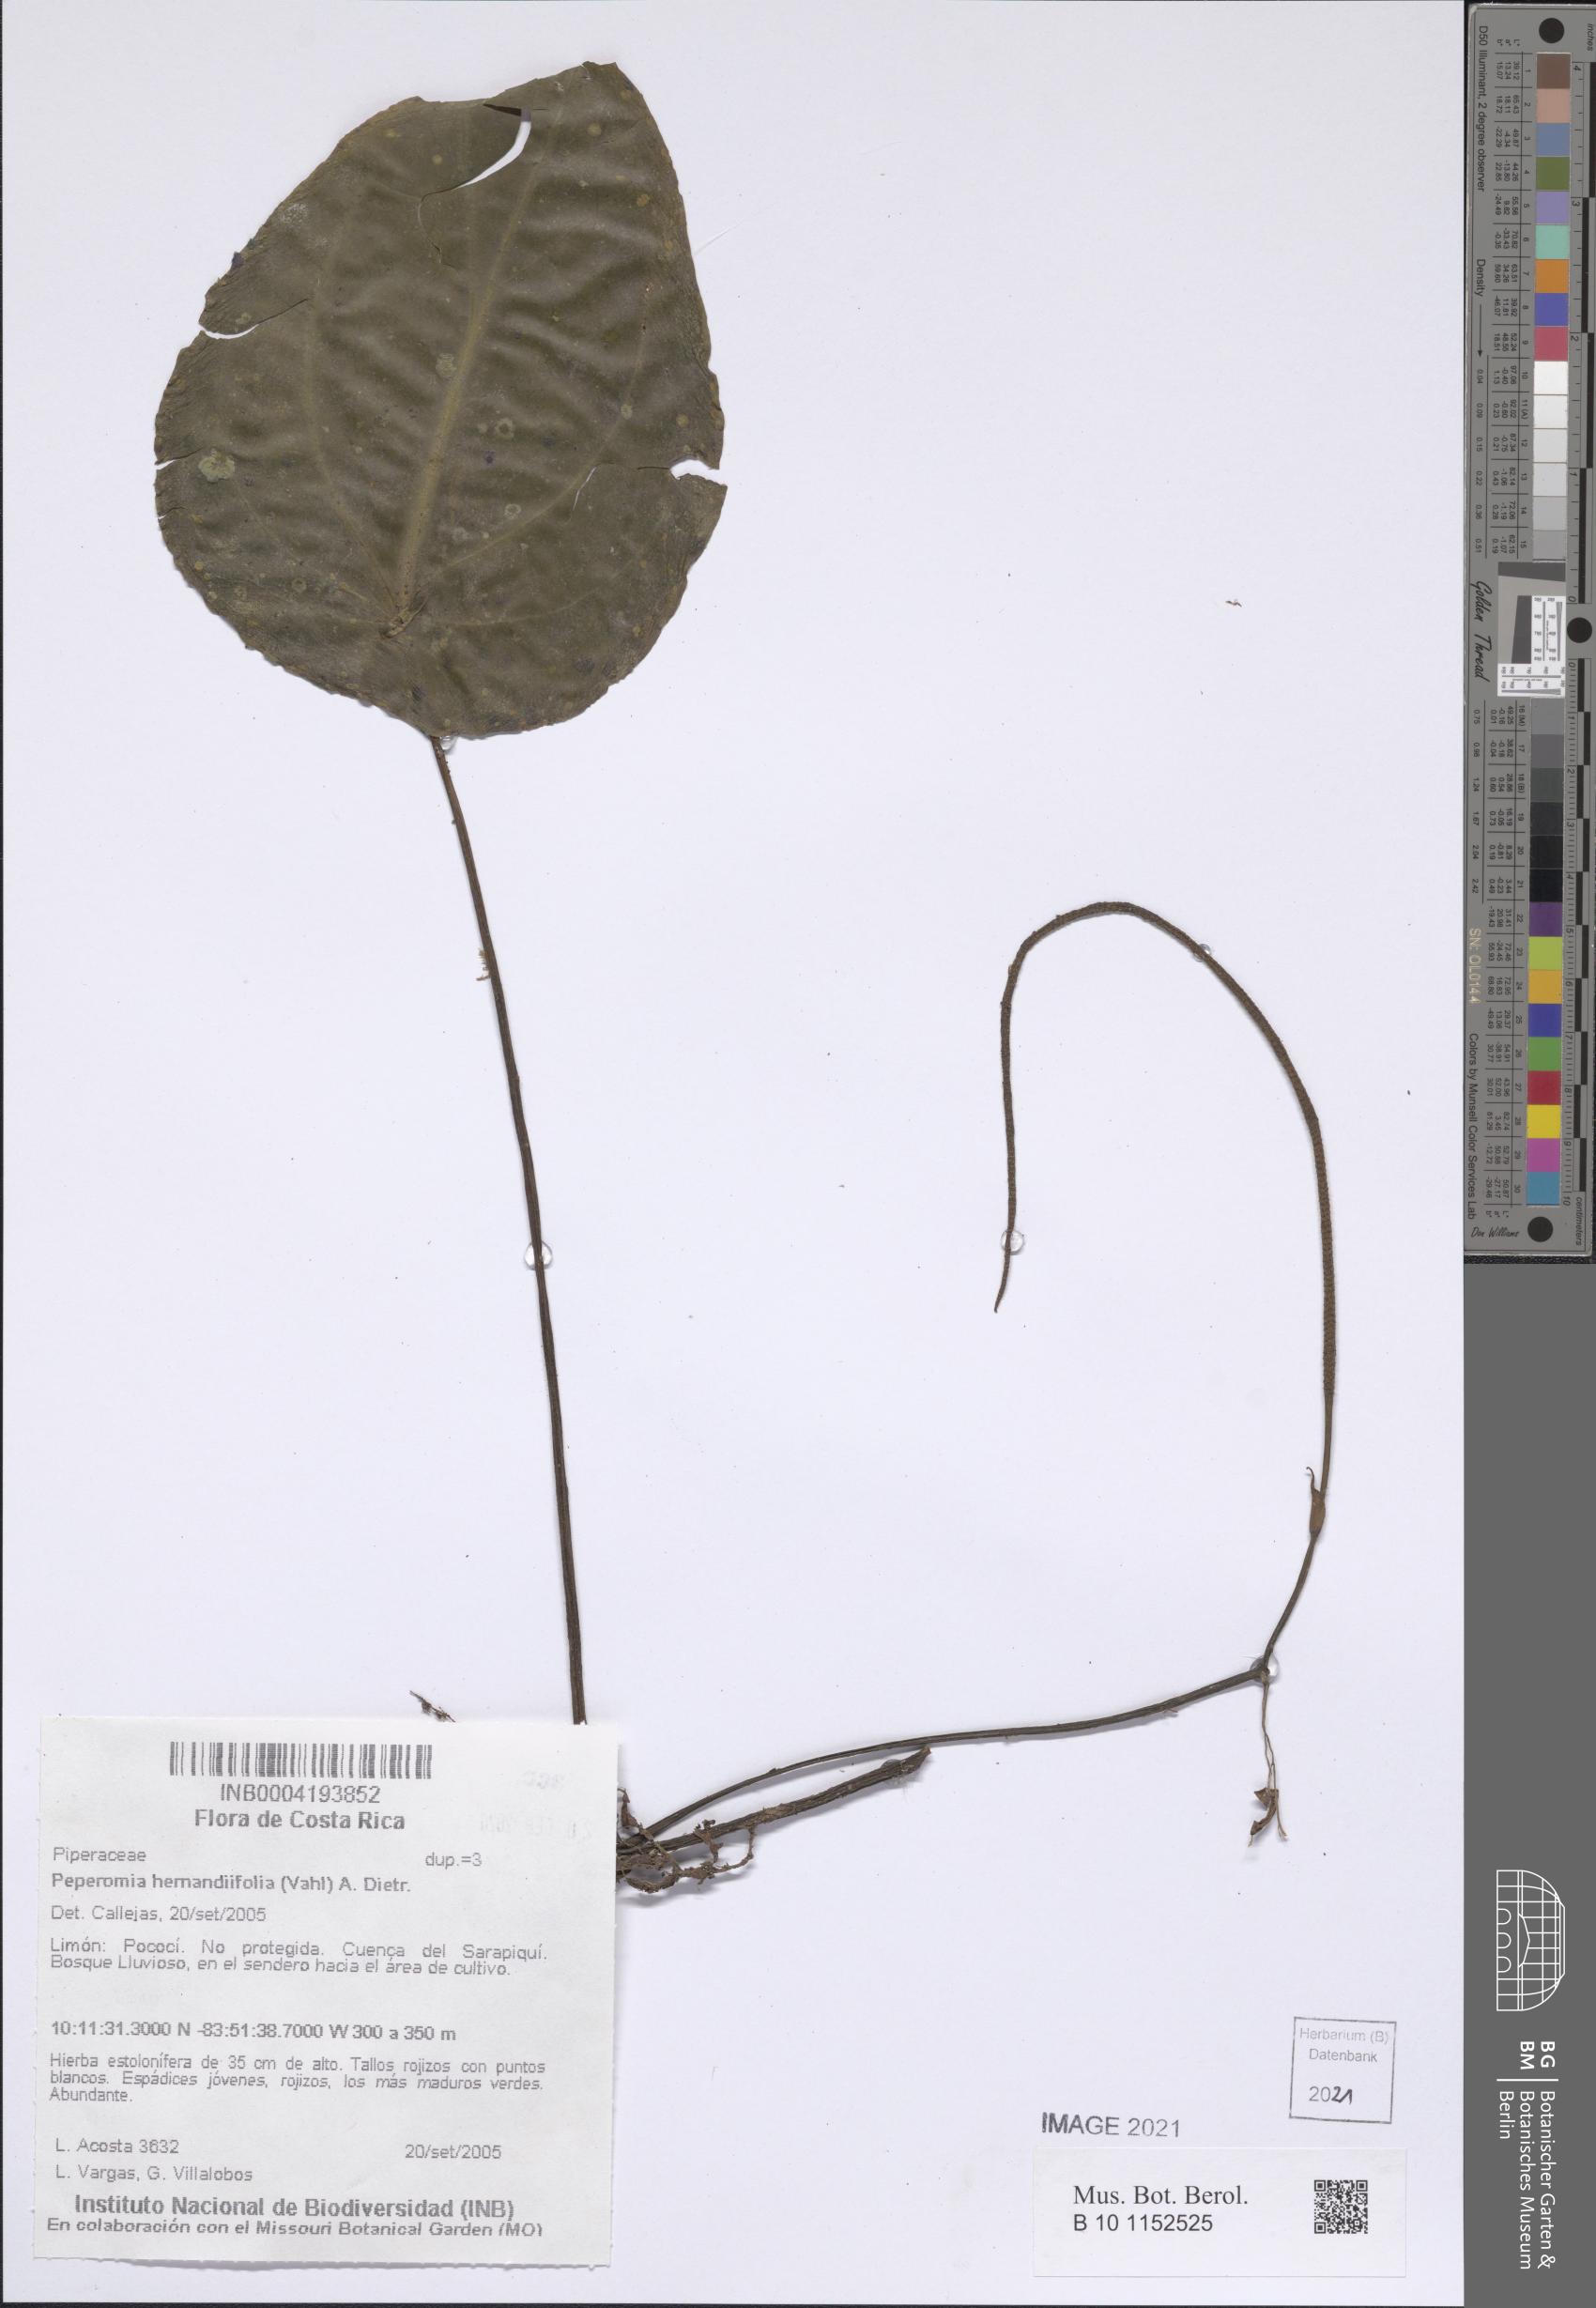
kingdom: Plantae
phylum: Tracheophyta
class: Magnoliopsida
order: Piperales
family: Piperaceae
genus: Peperomia
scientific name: Peperomia flexinervia
